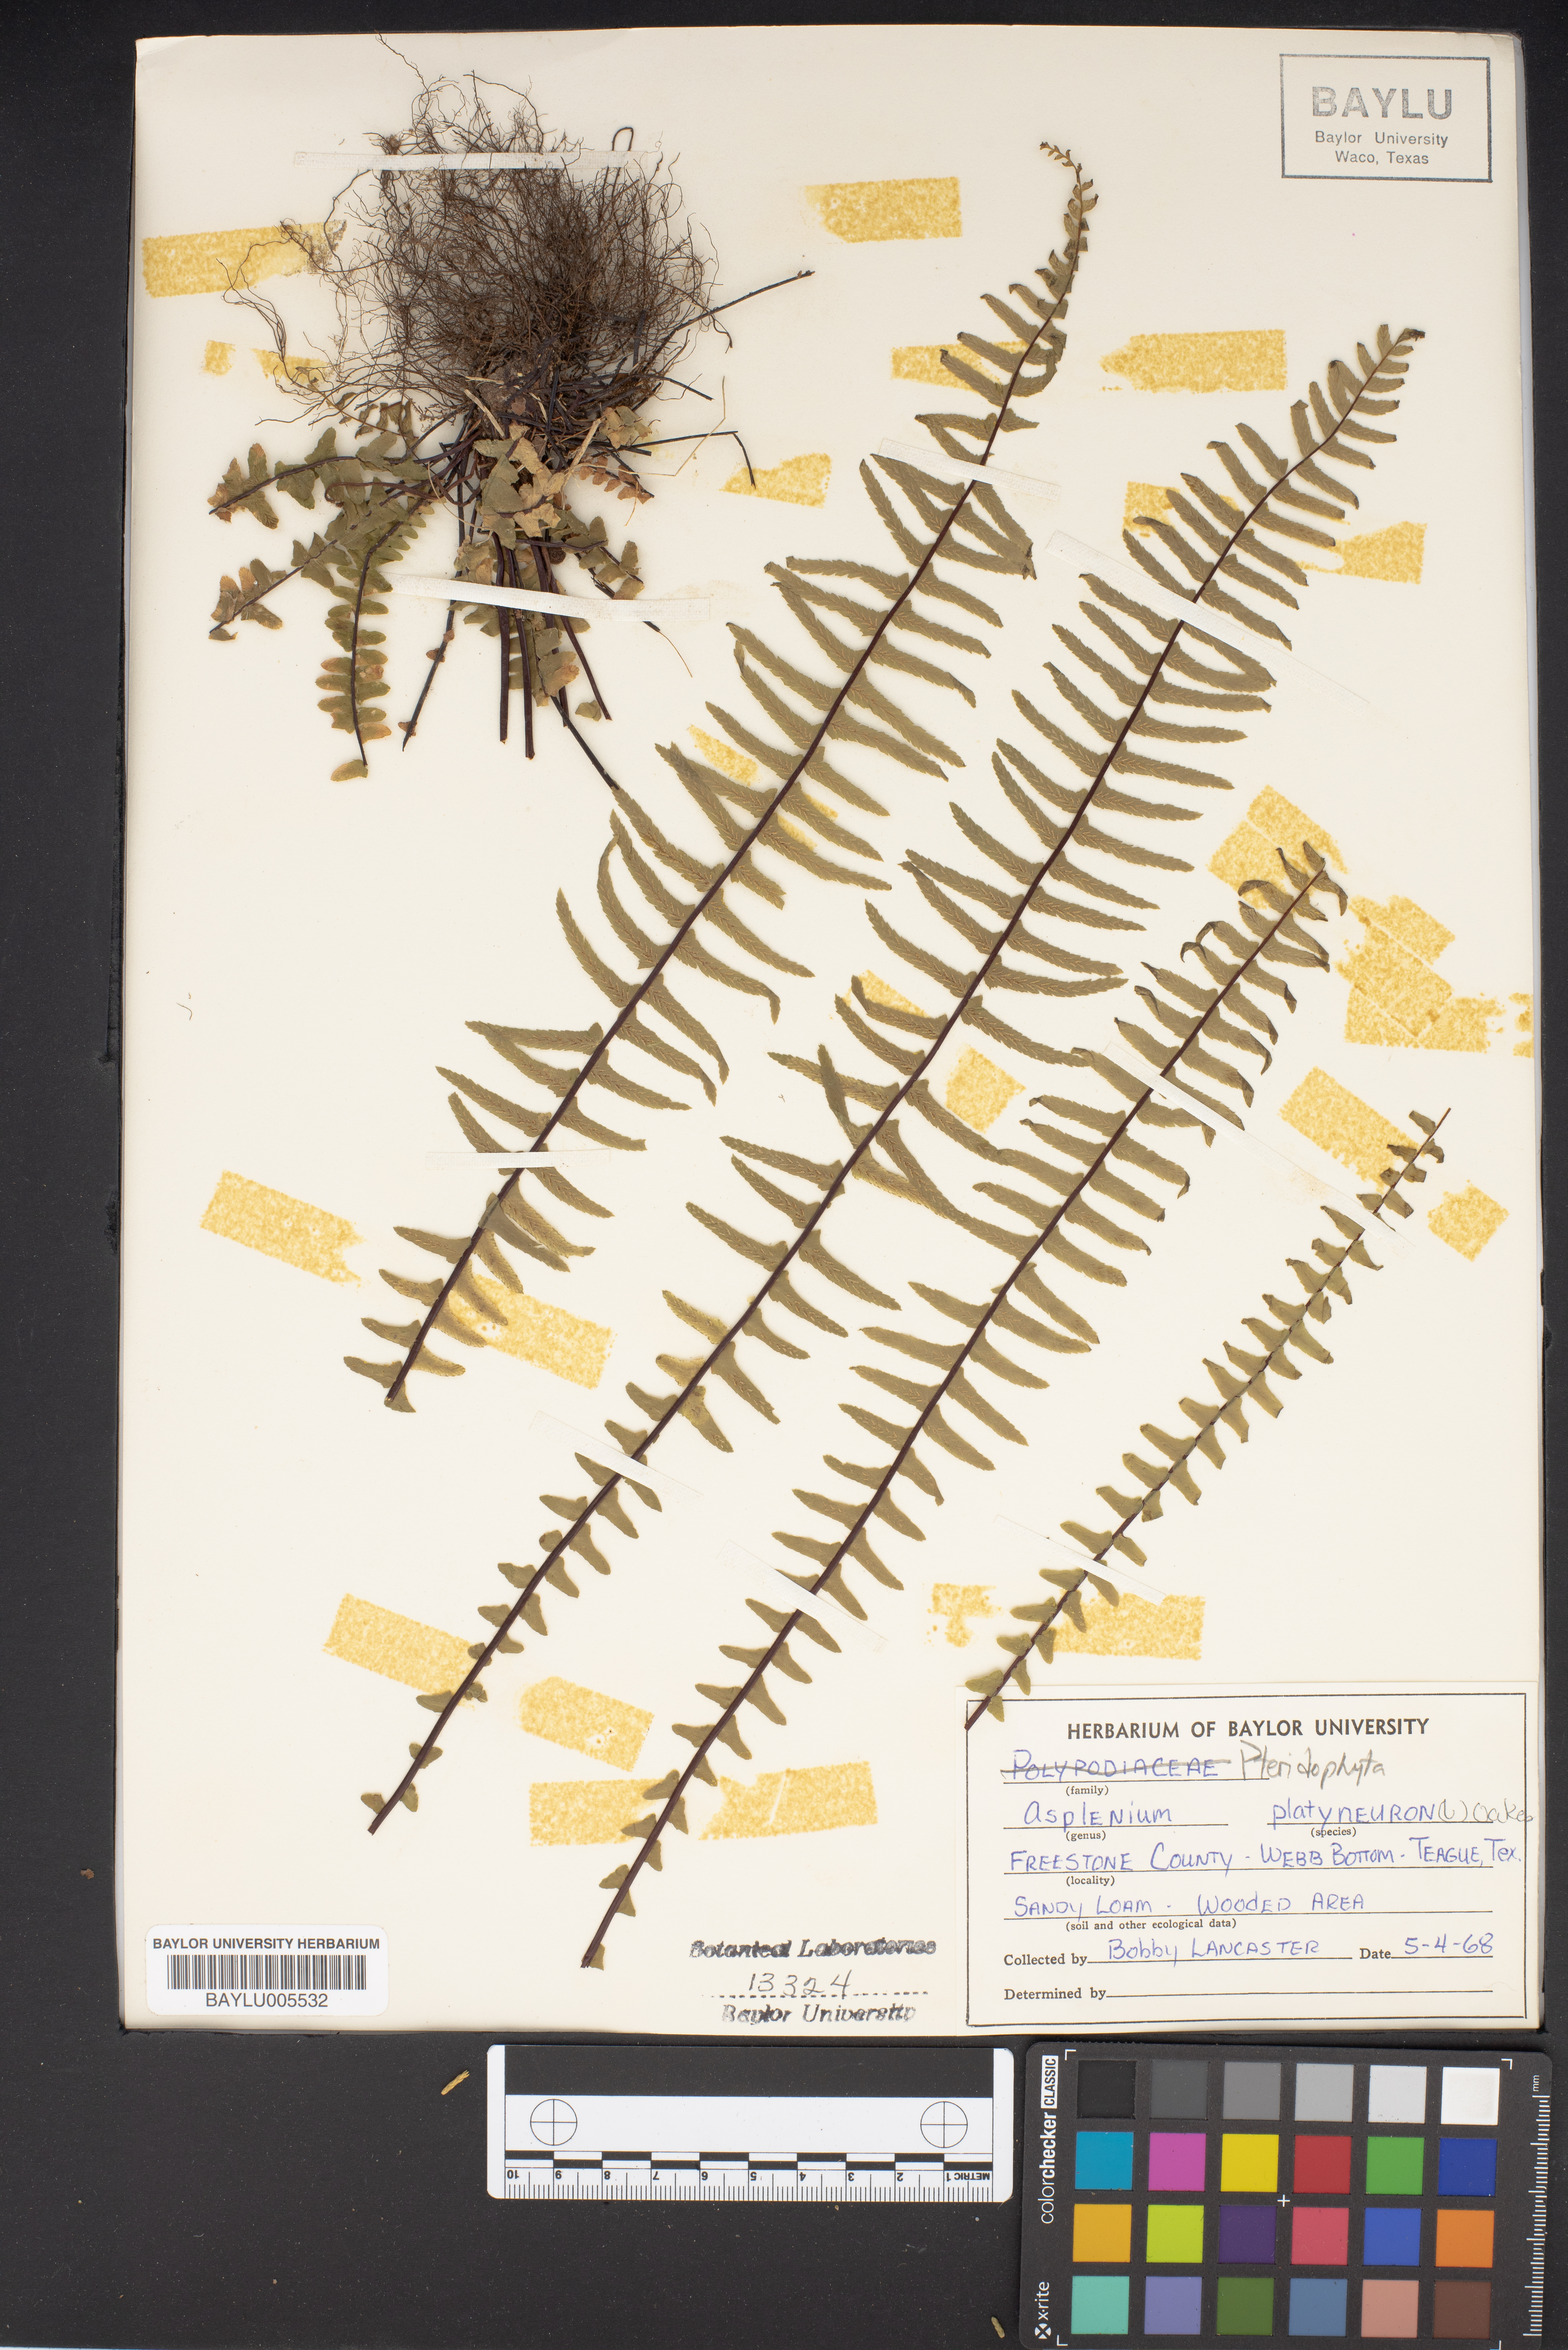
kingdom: Plantae
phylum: Tracheophyta
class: Polypodiopsida
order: Polypodiales
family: Aspleniaceae
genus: Asplenium
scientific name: Asplenium platyneuron
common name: Ebony spleenwort
